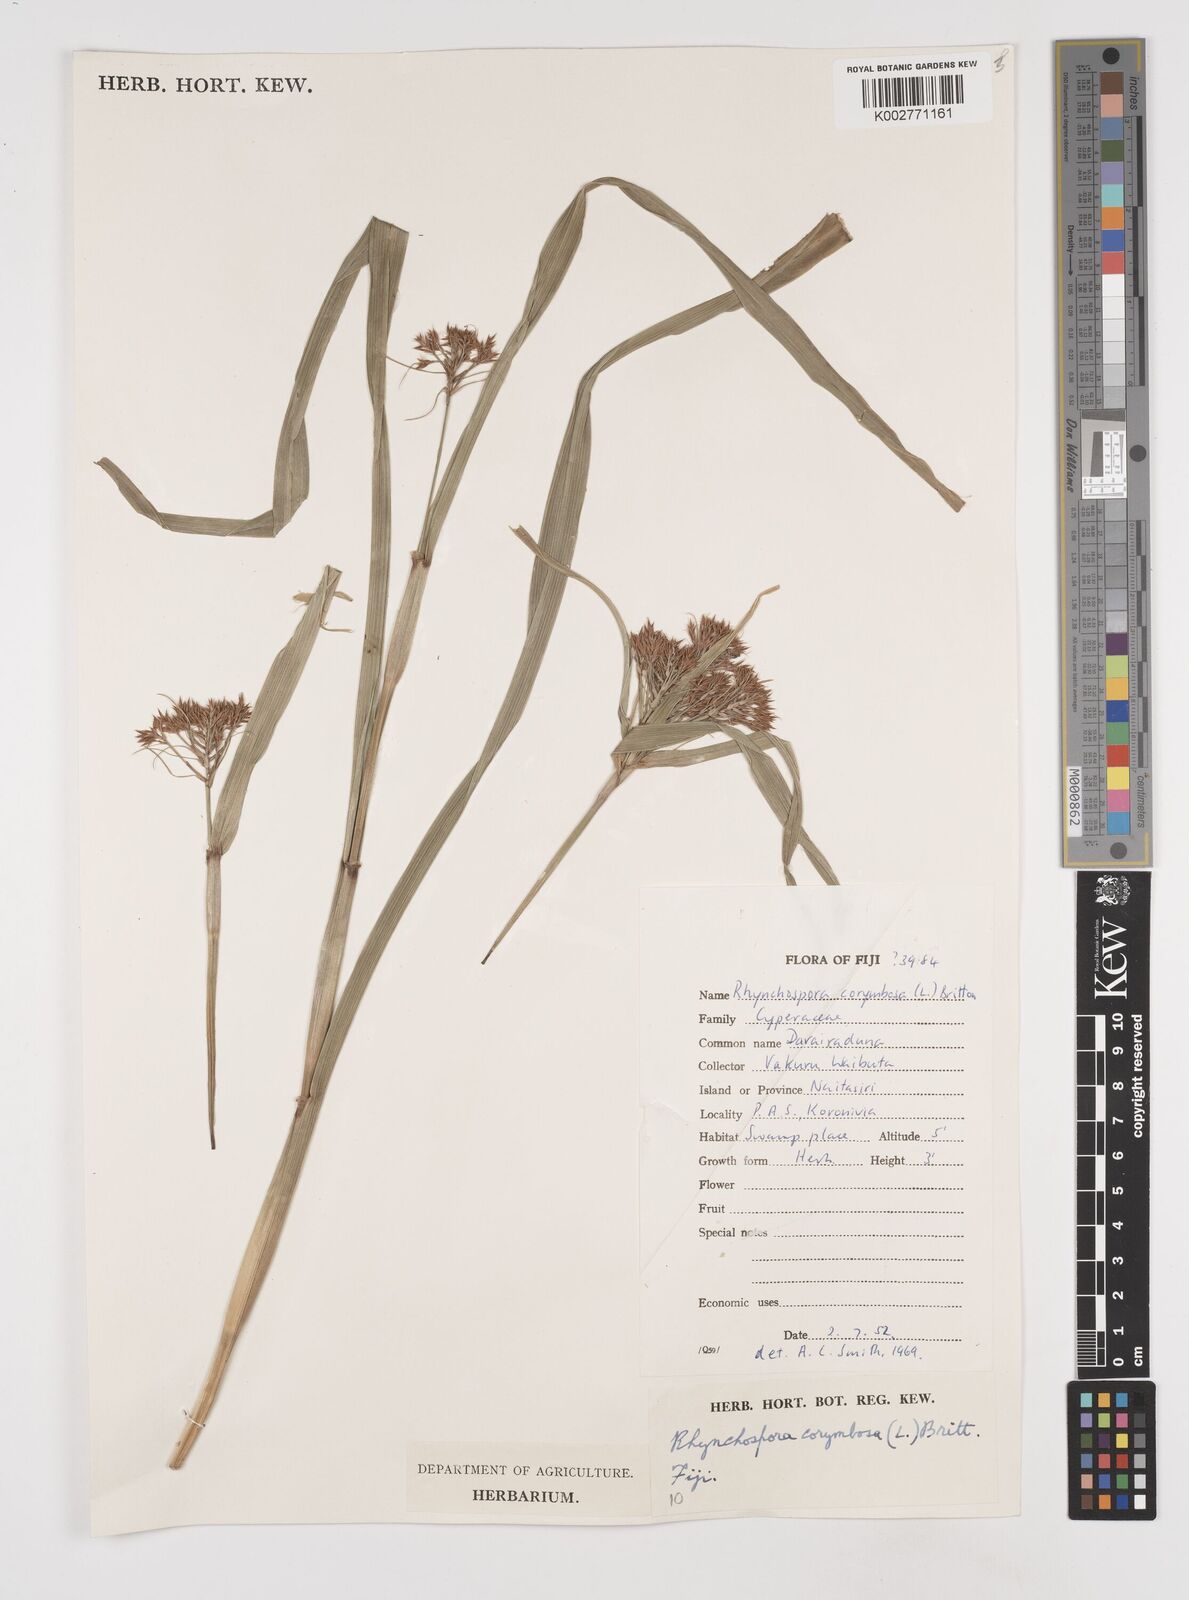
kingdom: Plantae
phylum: Tracheophyta
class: Liliopsida
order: Poales
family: Cyperaceae
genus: Rhynchospora
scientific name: Rhynchospora corymbosa
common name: Golden beak sedge
